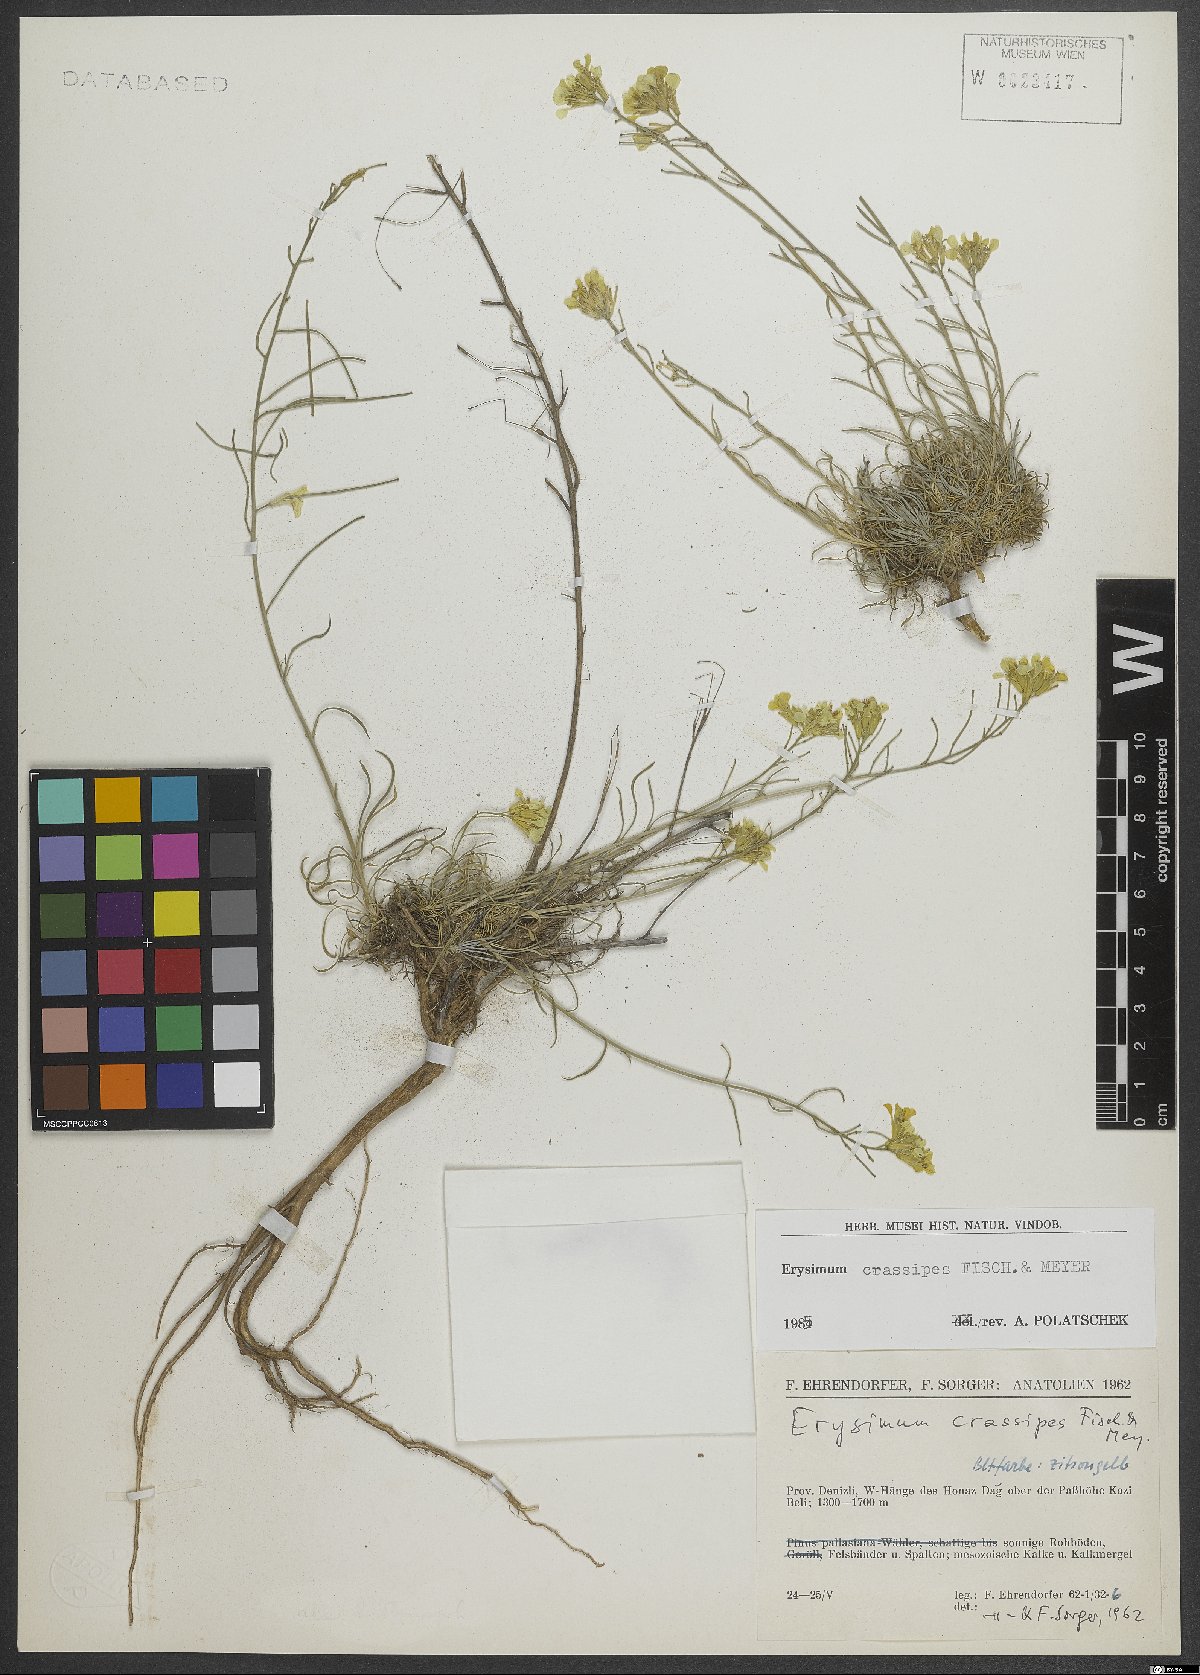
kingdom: Plantae
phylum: Tracheophyta
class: Magnoliopsida
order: Brassicales
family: Brassicaceae
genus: Erysimum
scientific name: Erysimum crassipes
